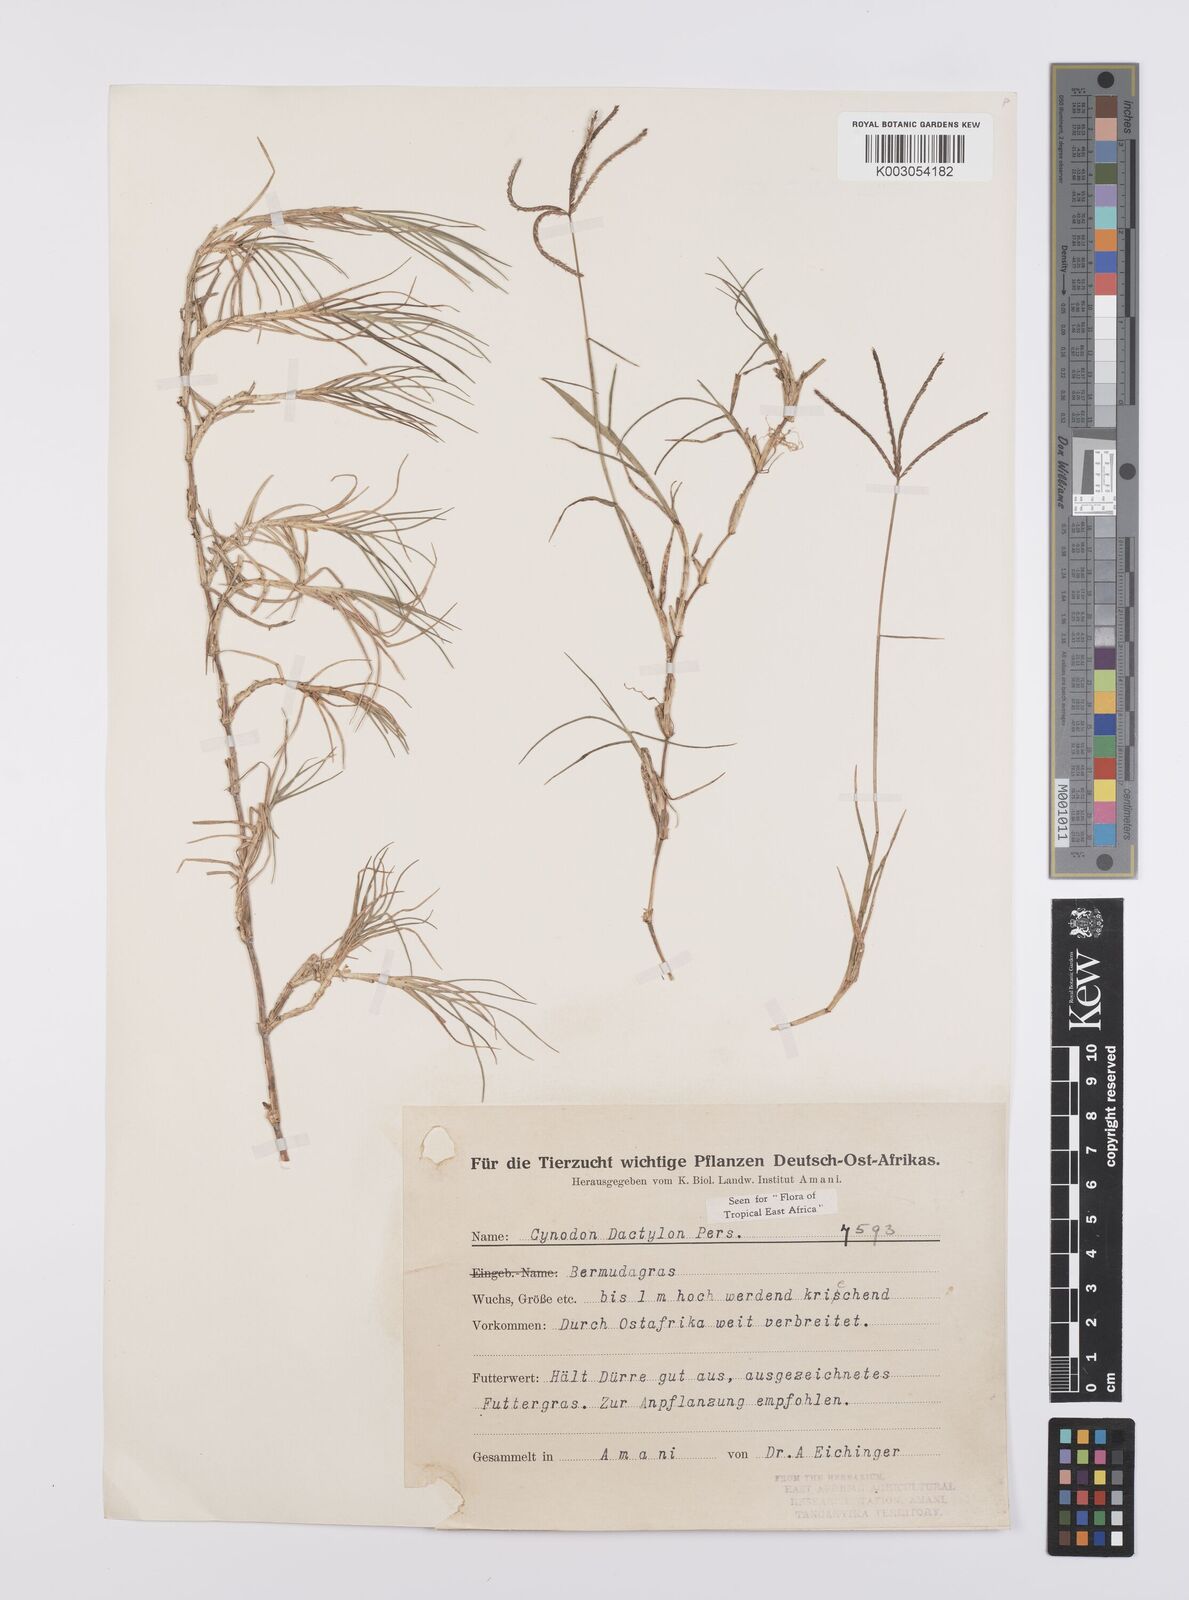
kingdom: Plantae
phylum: Tracheophyta
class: Liliopsida
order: Poales
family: Poaceae
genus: Cynodon
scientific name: Cynodon dactylon
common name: Bermuda grass
